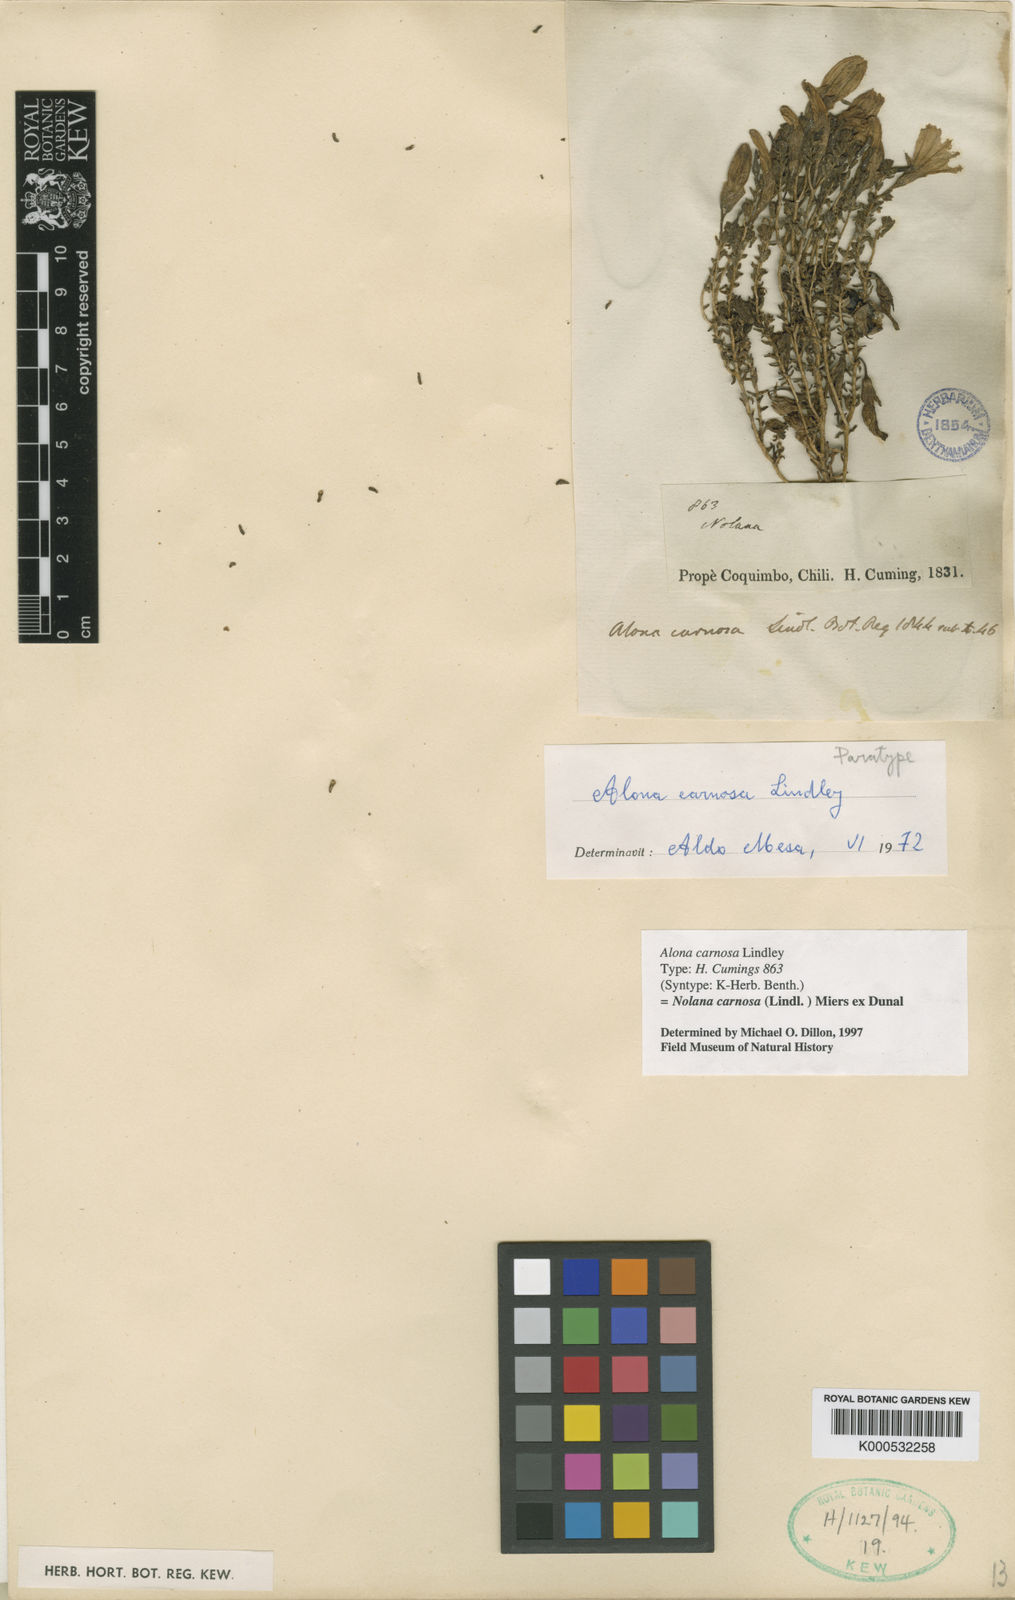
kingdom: Plantae
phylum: Tracheophyta
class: Magnoliopsida
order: Solanales
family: Solanaceae
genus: Nolana
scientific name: Nolana carnosa
